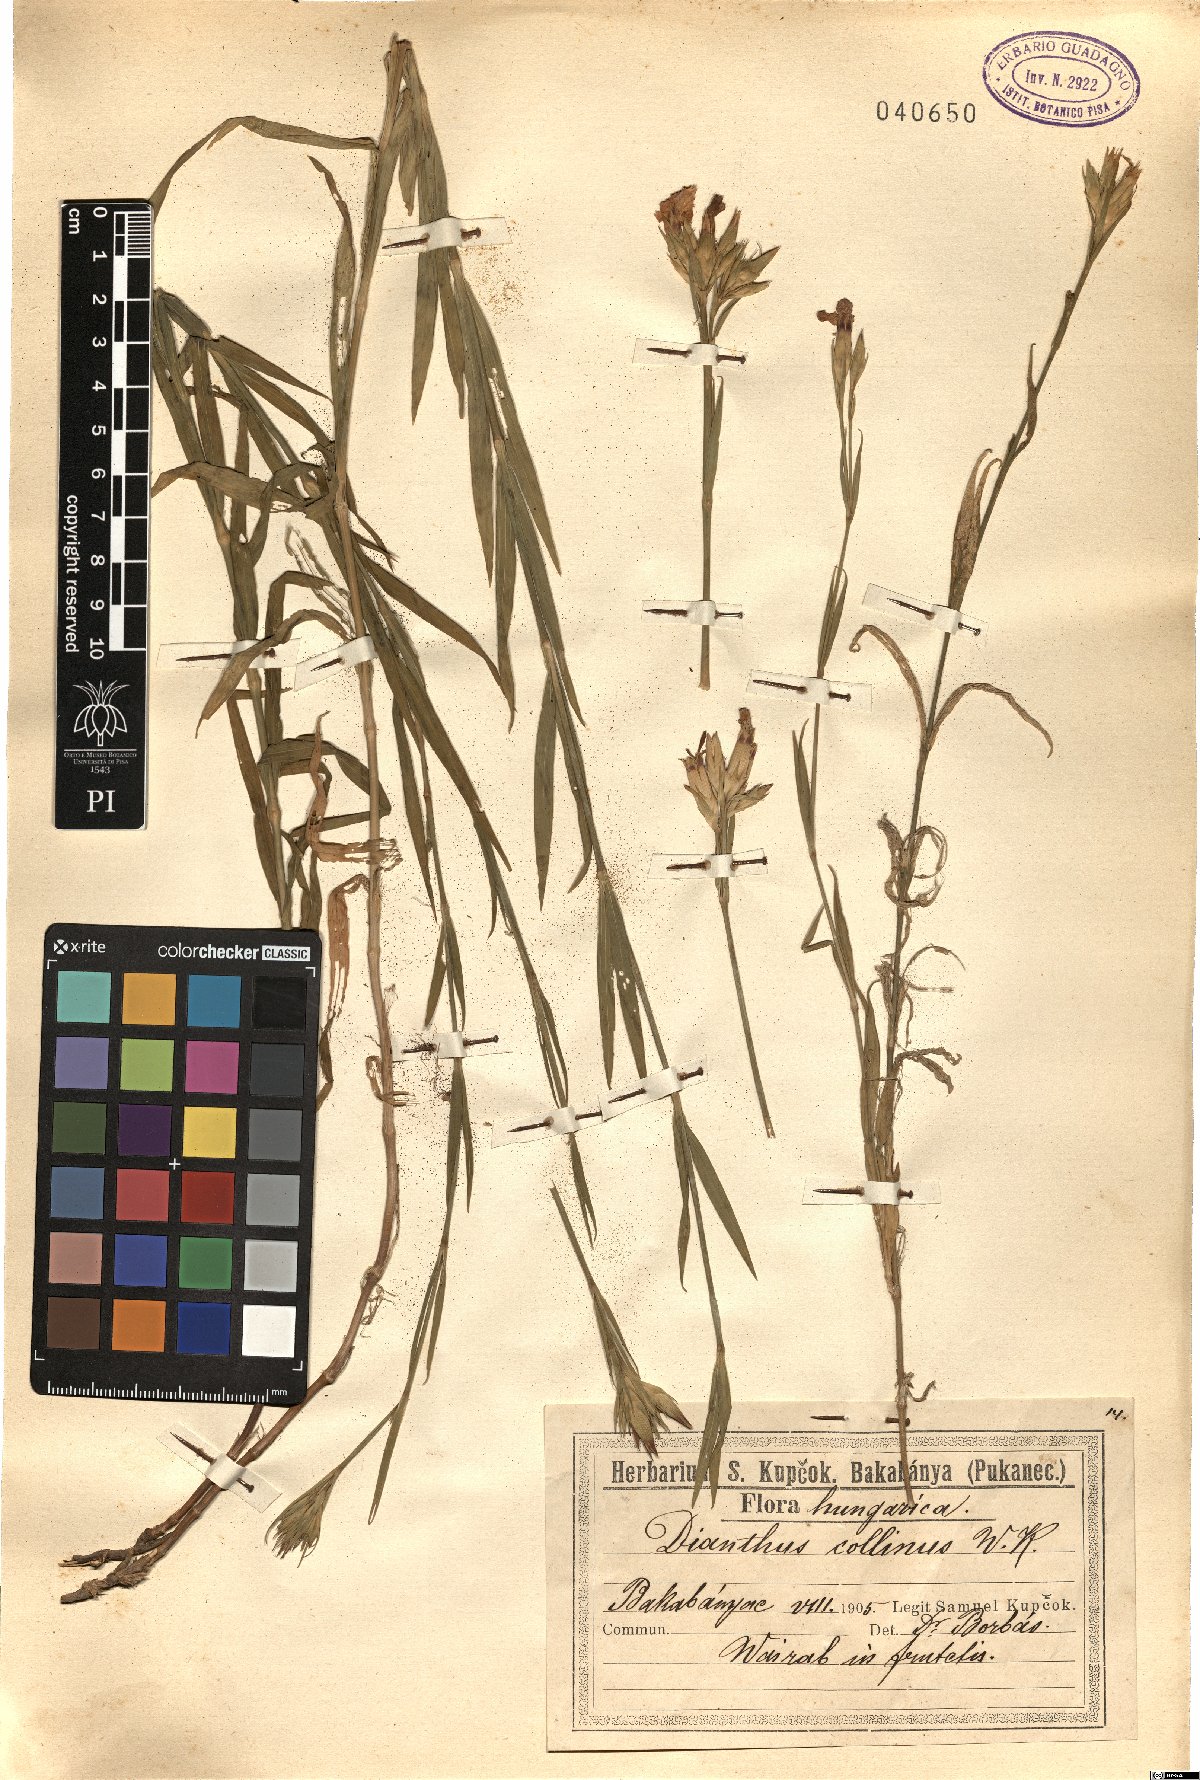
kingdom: Plantae
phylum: Tracheophyta
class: Magnoliopsida
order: Caryophyllales
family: Caryophyllaceae
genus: Dianthus
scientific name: Dianthus collinus
